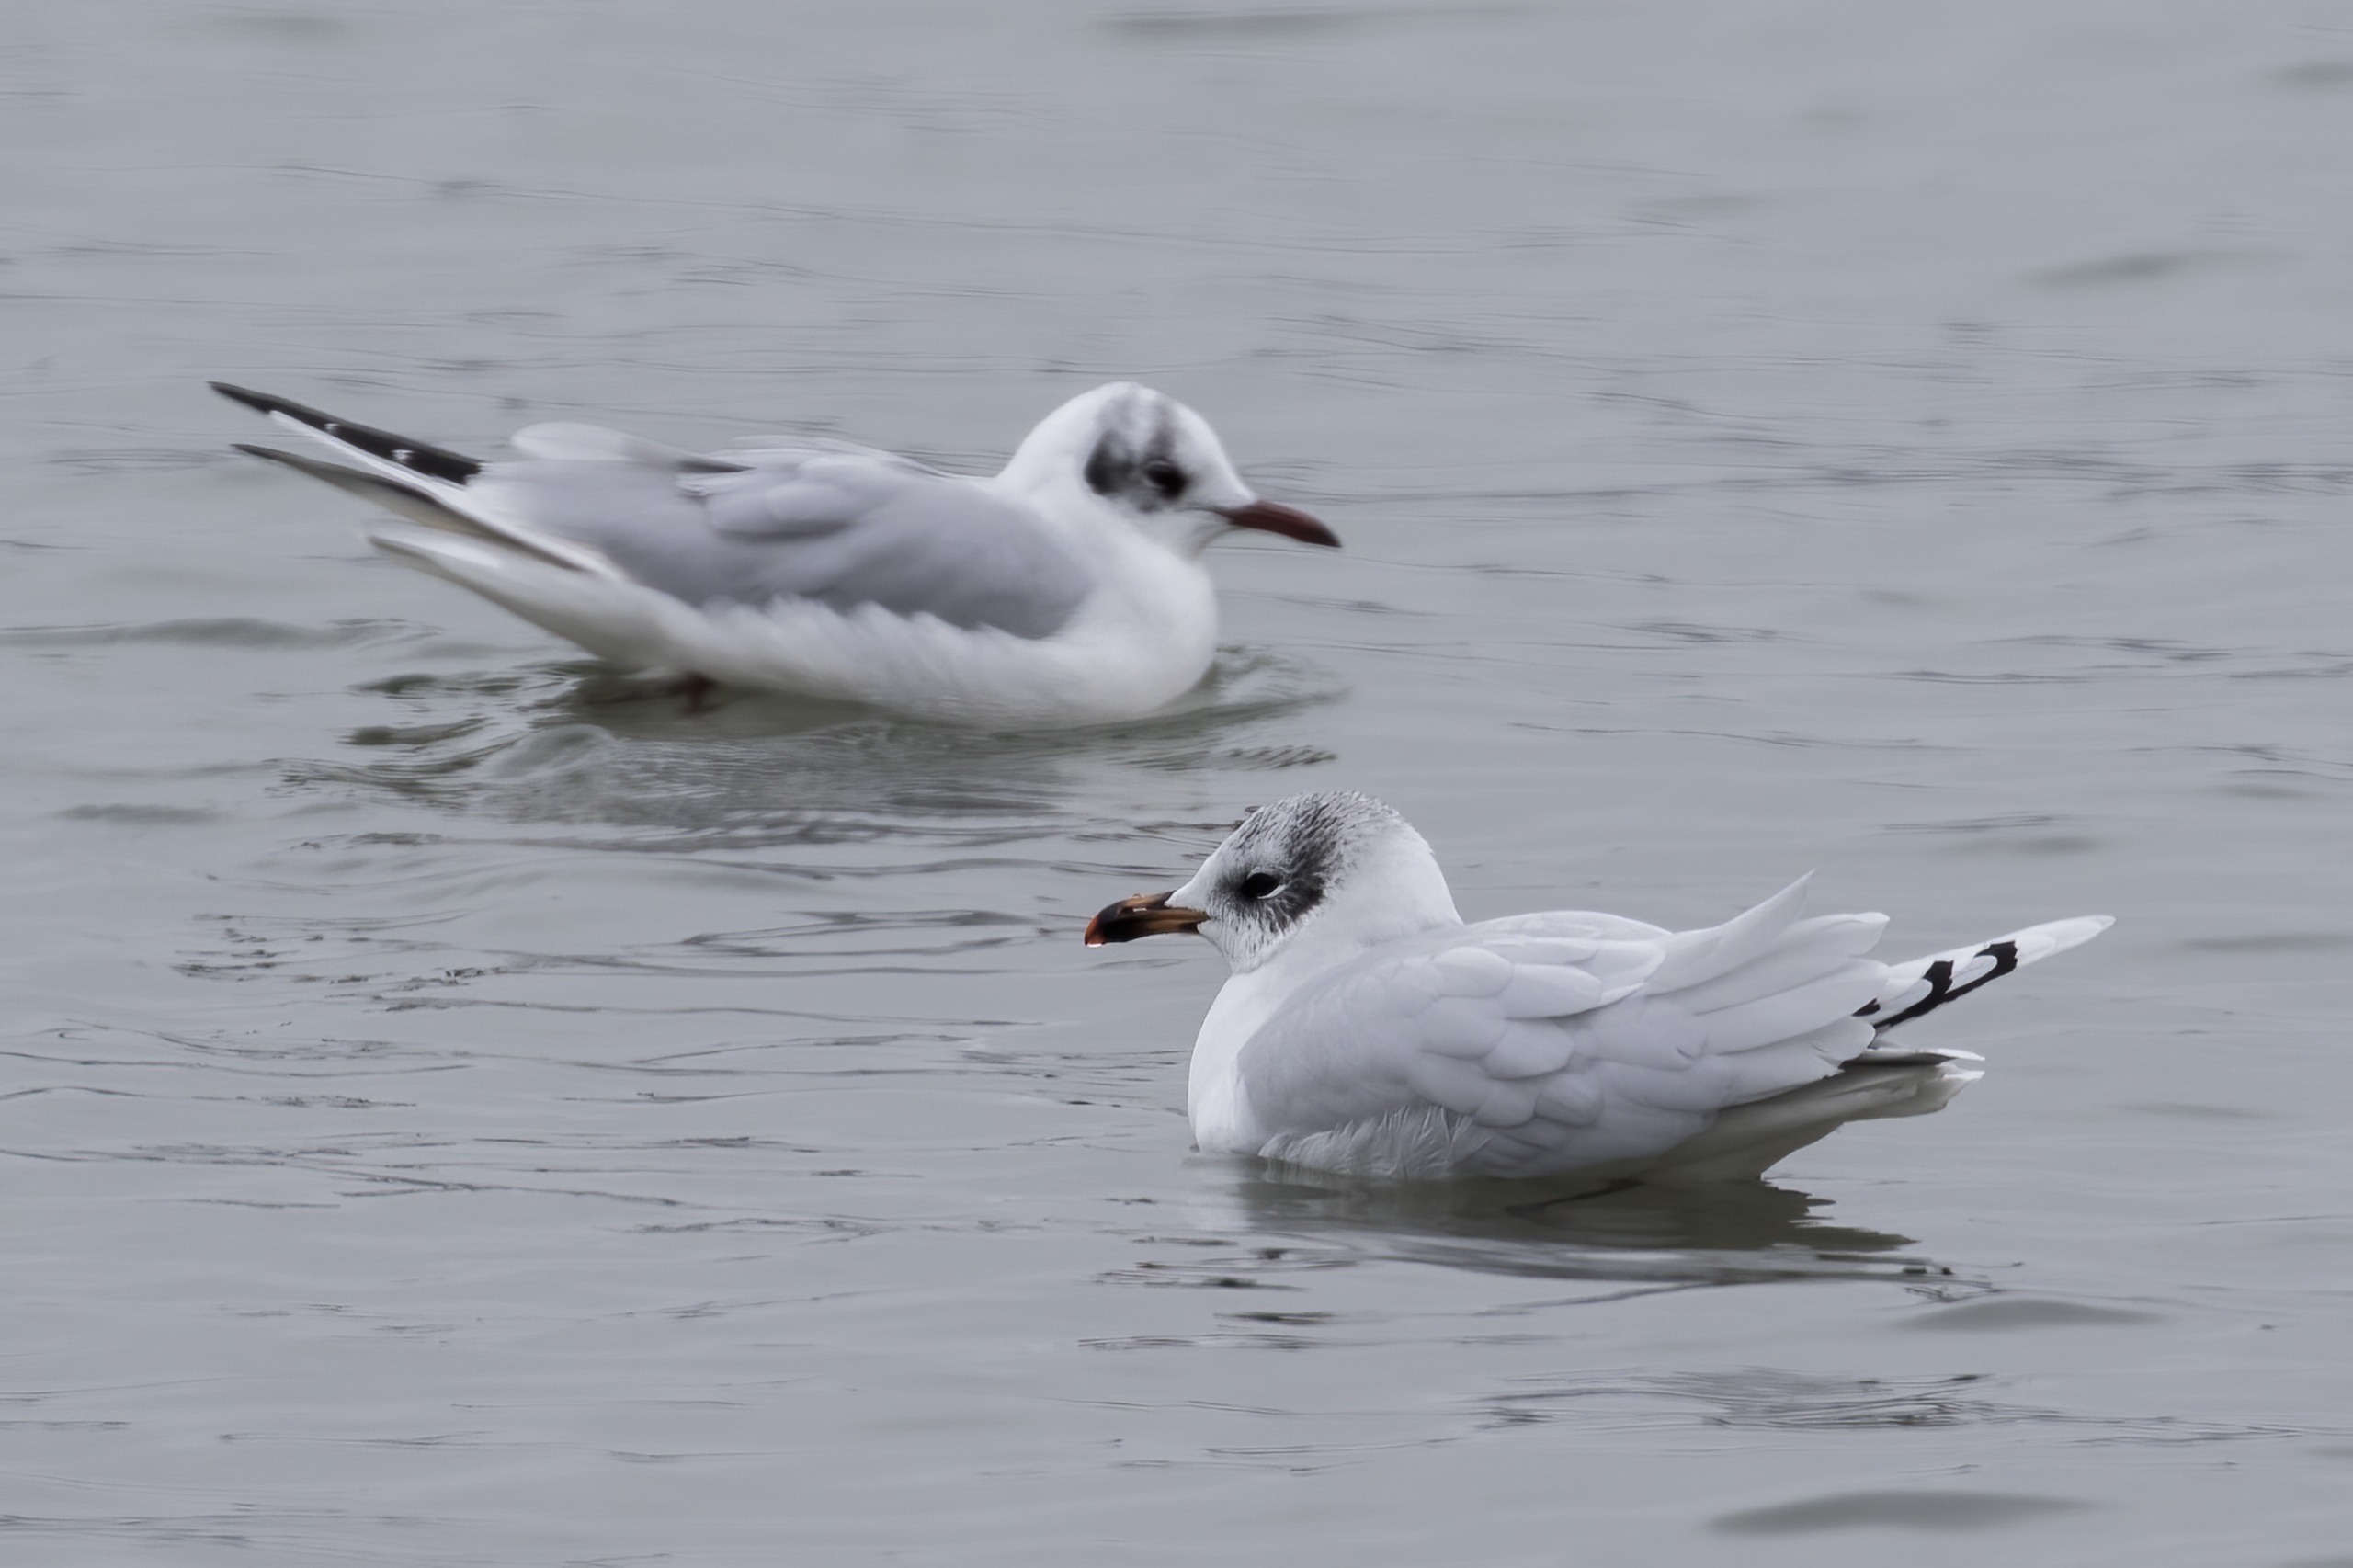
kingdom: Animalia
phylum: Chordata
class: Aves
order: Charadriiformes
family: Laridae
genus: Chroicocephalus
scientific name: Chroicocephalus ridibundus
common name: Hættemåge
